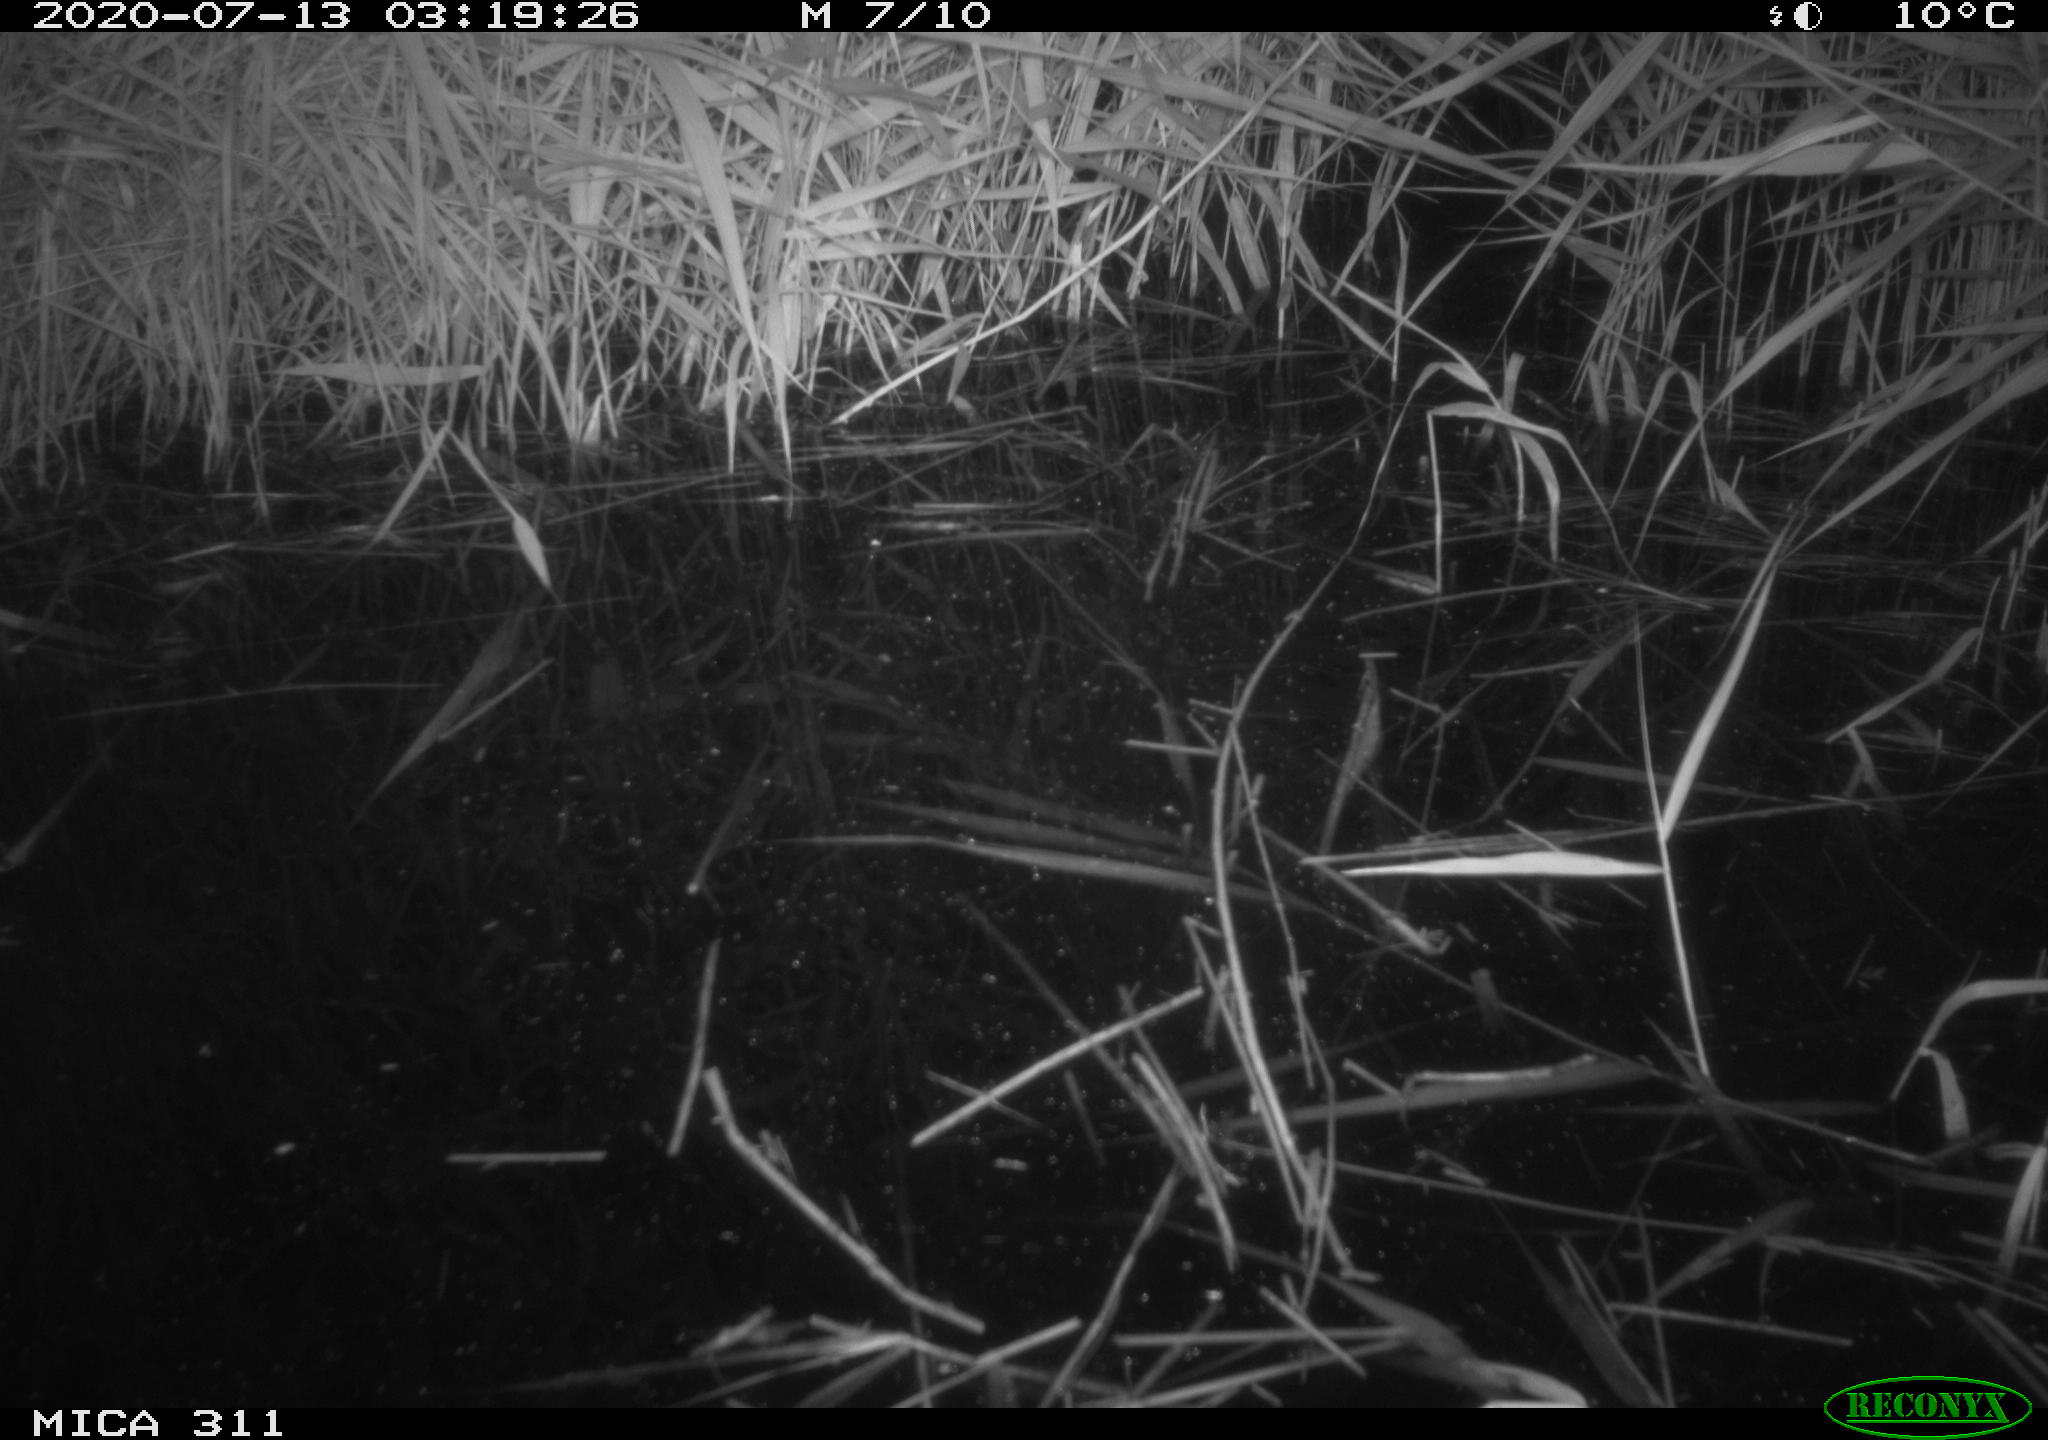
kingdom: Animalia
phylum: Chordata
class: Aves
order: Anseriformes
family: Anatidae
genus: Anas
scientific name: Anas platyrhynchos
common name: Mallard
